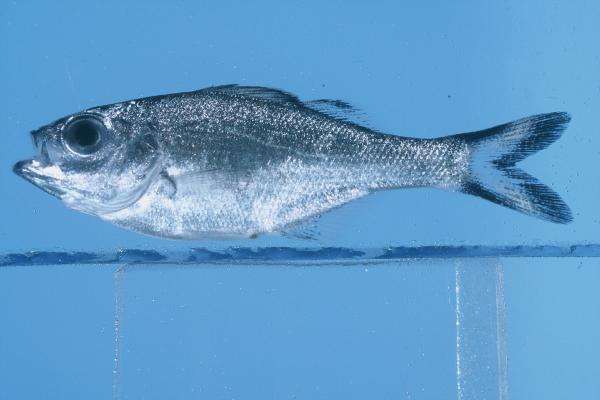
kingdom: Animalia
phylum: Chordata
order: Perciformes
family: Kuhliidae
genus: Kuhlia
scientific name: Kuhlia caudavittata
